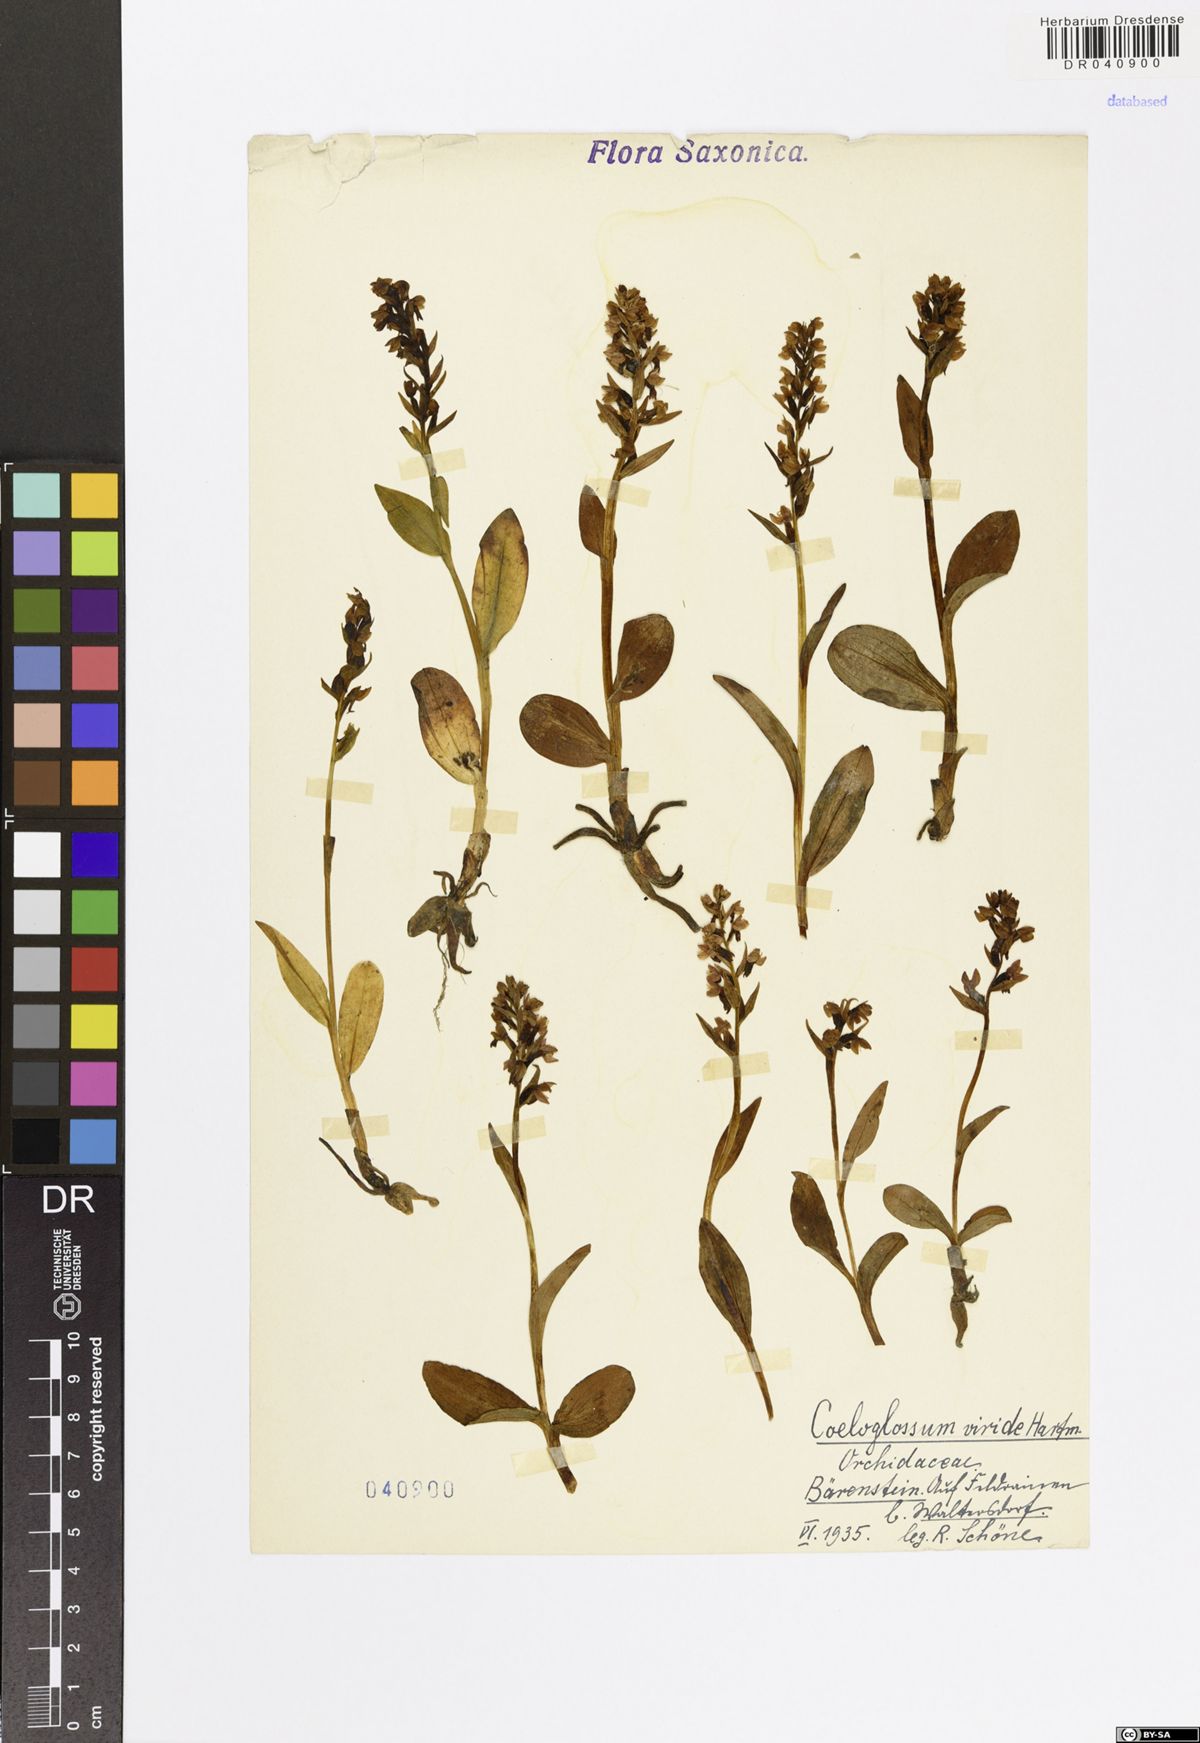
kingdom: Plantae
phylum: Tracheophyta
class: Liliopsida
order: Asparagales
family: Orchidaceae
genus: Dactylorhiza
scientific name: Dactylorhiza viridis
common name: Longbract frog orchid
